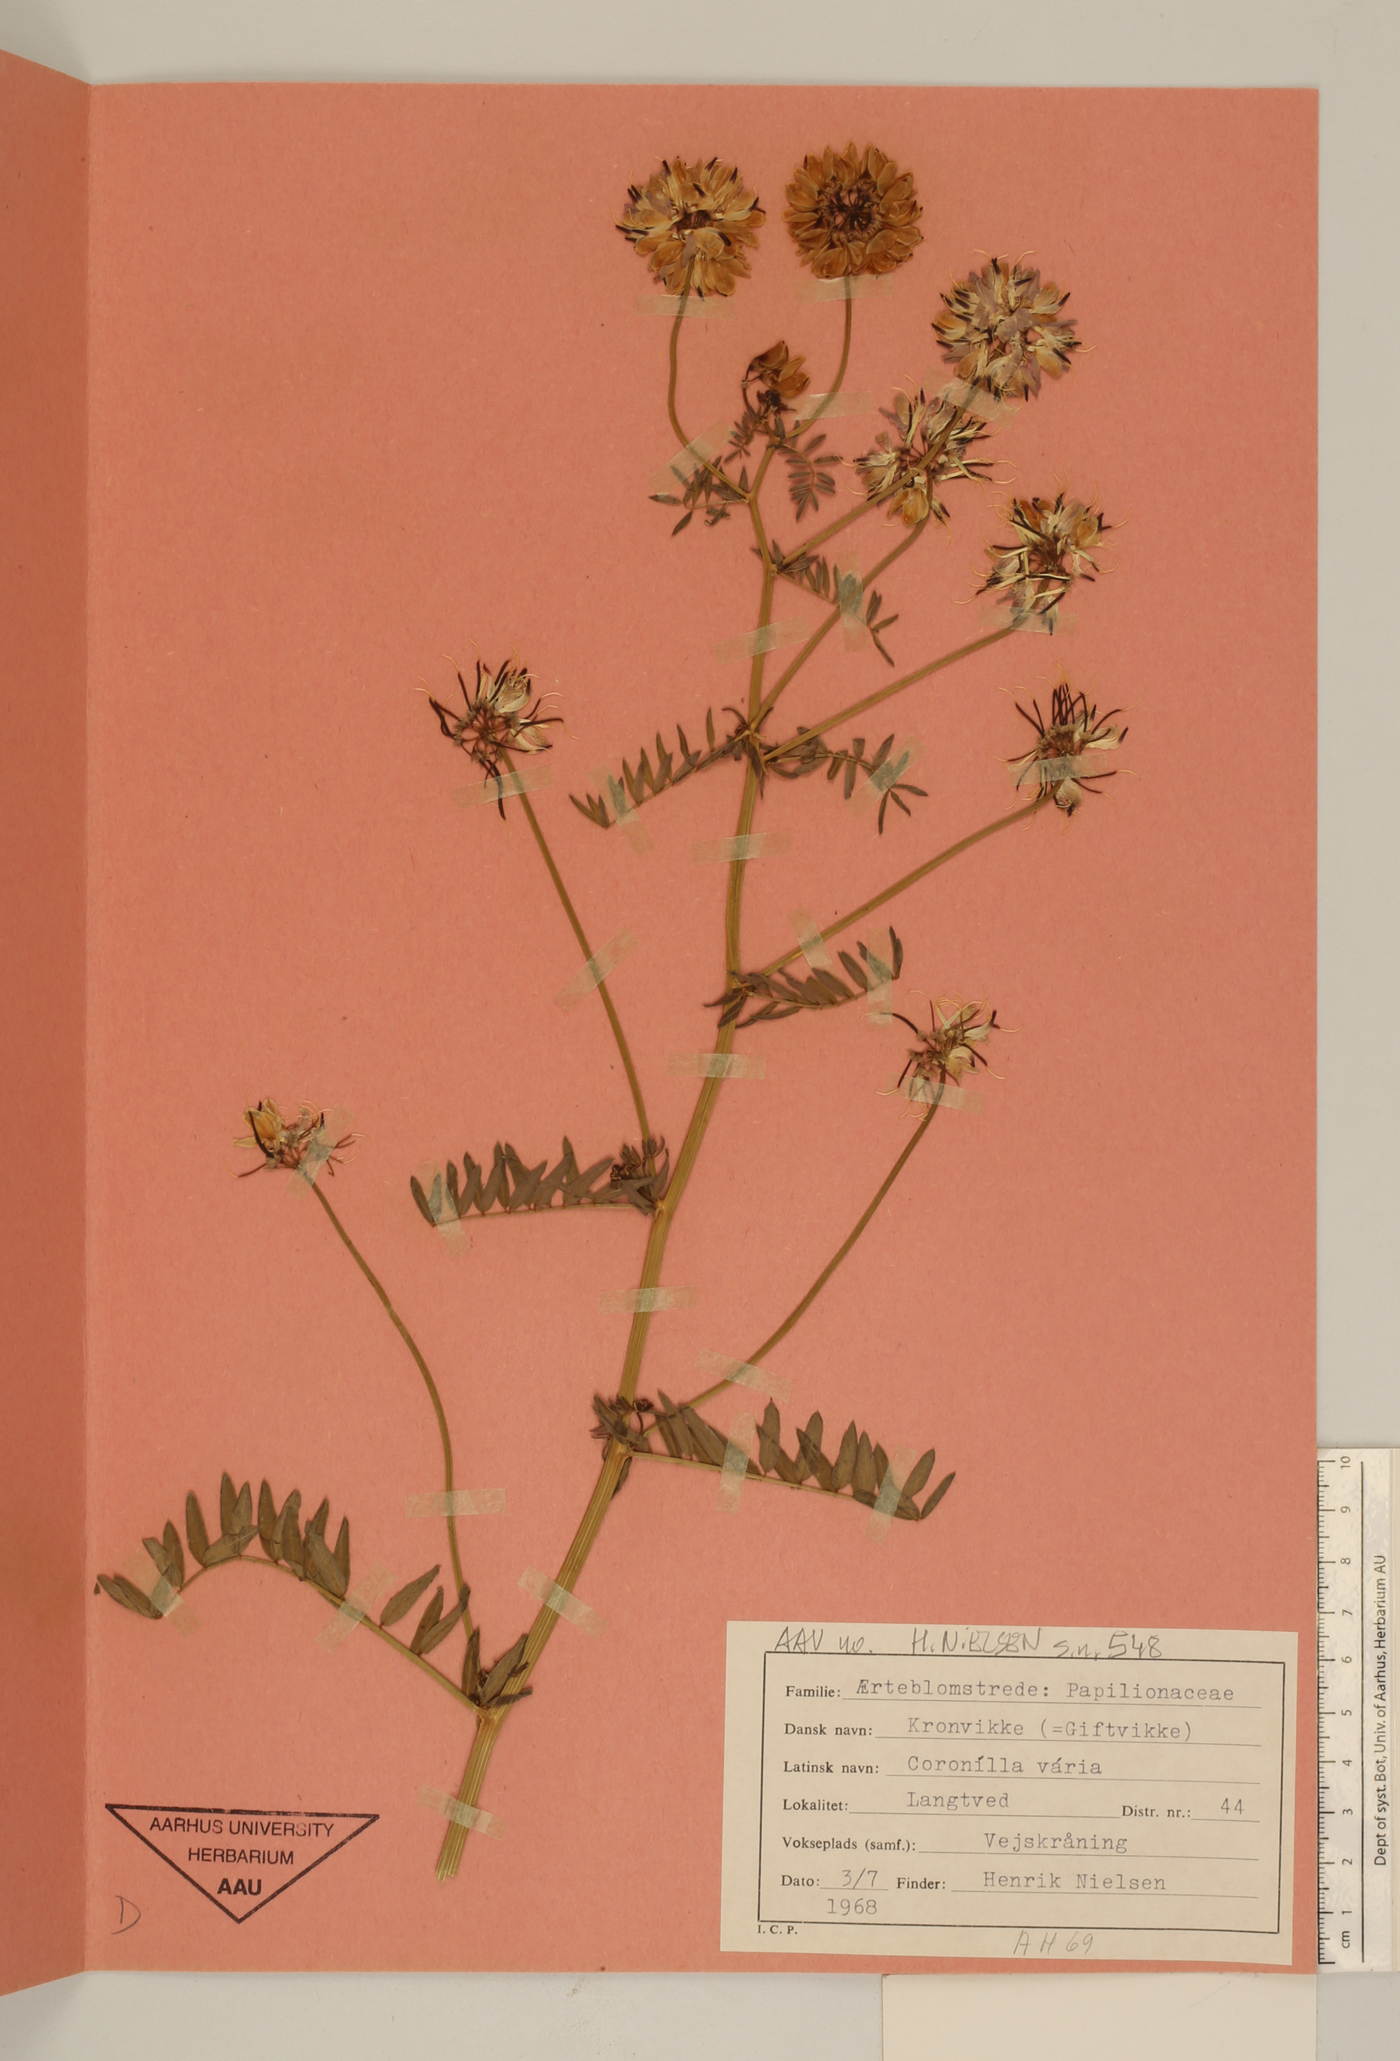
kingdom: Plantae
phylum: Tracheophyta
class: Magnoliopsida
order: Fabales
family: Fabaceae
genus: Coronilla
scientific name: Coronilla varia
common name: Crownvetch
